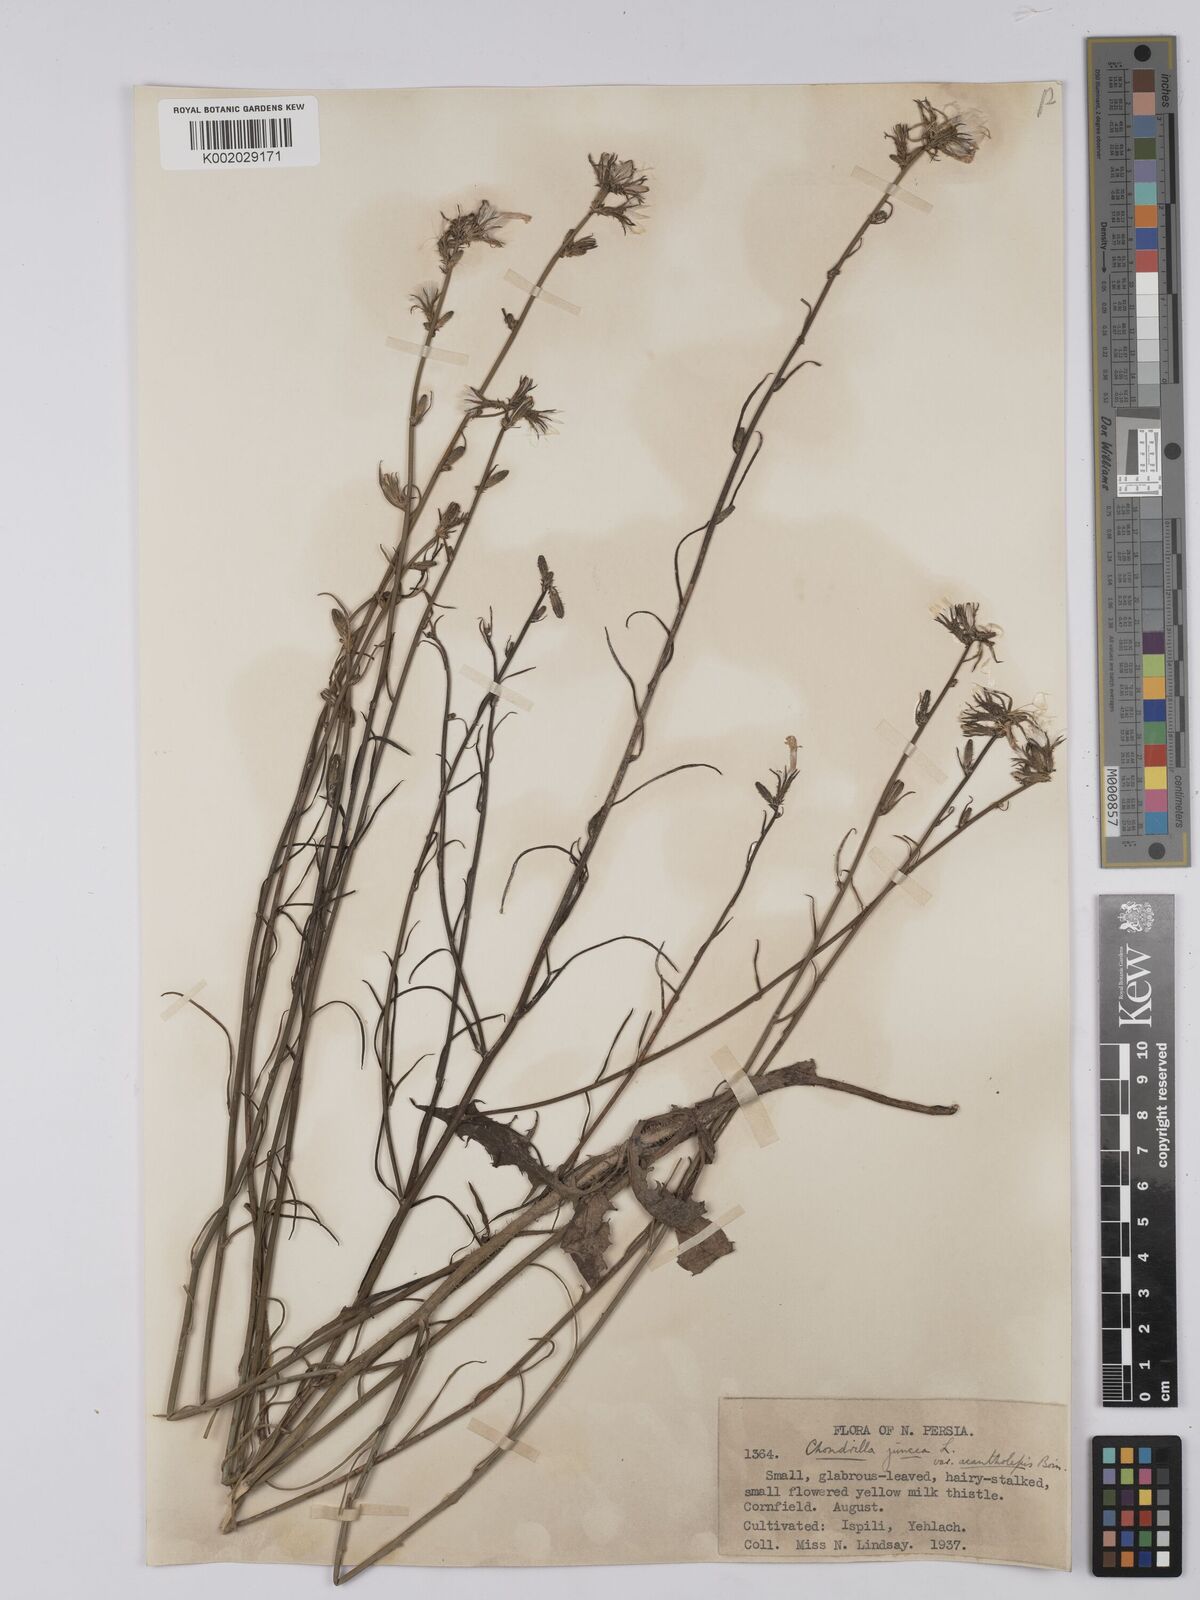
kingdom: Plantae
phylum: Tracheophyta
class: Magnoliopsida
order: Asterales
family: Asteraceae
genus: Chondrilla
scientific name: Chondrilla juncea
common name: Skeleton weed
